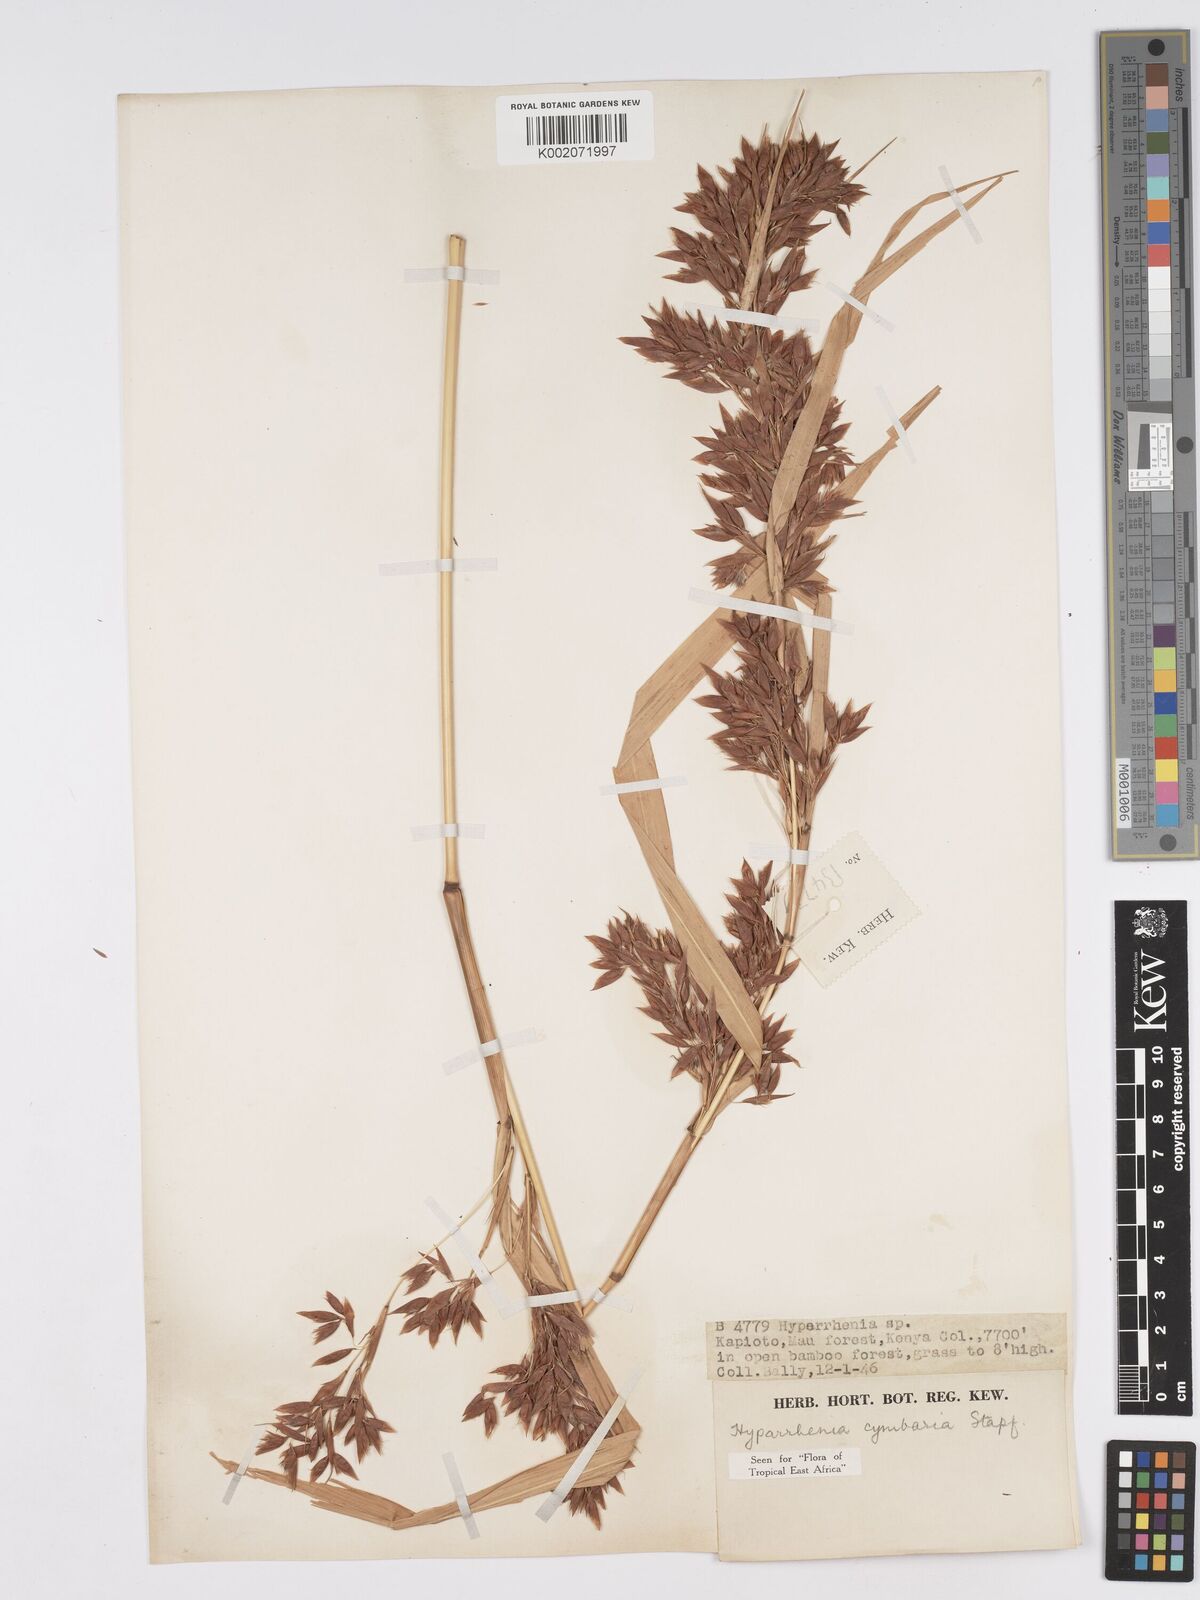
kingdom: Plantae
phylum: Tracheophyta
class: Liliopsida
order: Poales
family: Poaceae
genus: Hyparrhenia
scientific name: Hyparrhenia cymbaria
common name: Boat thatching grass
